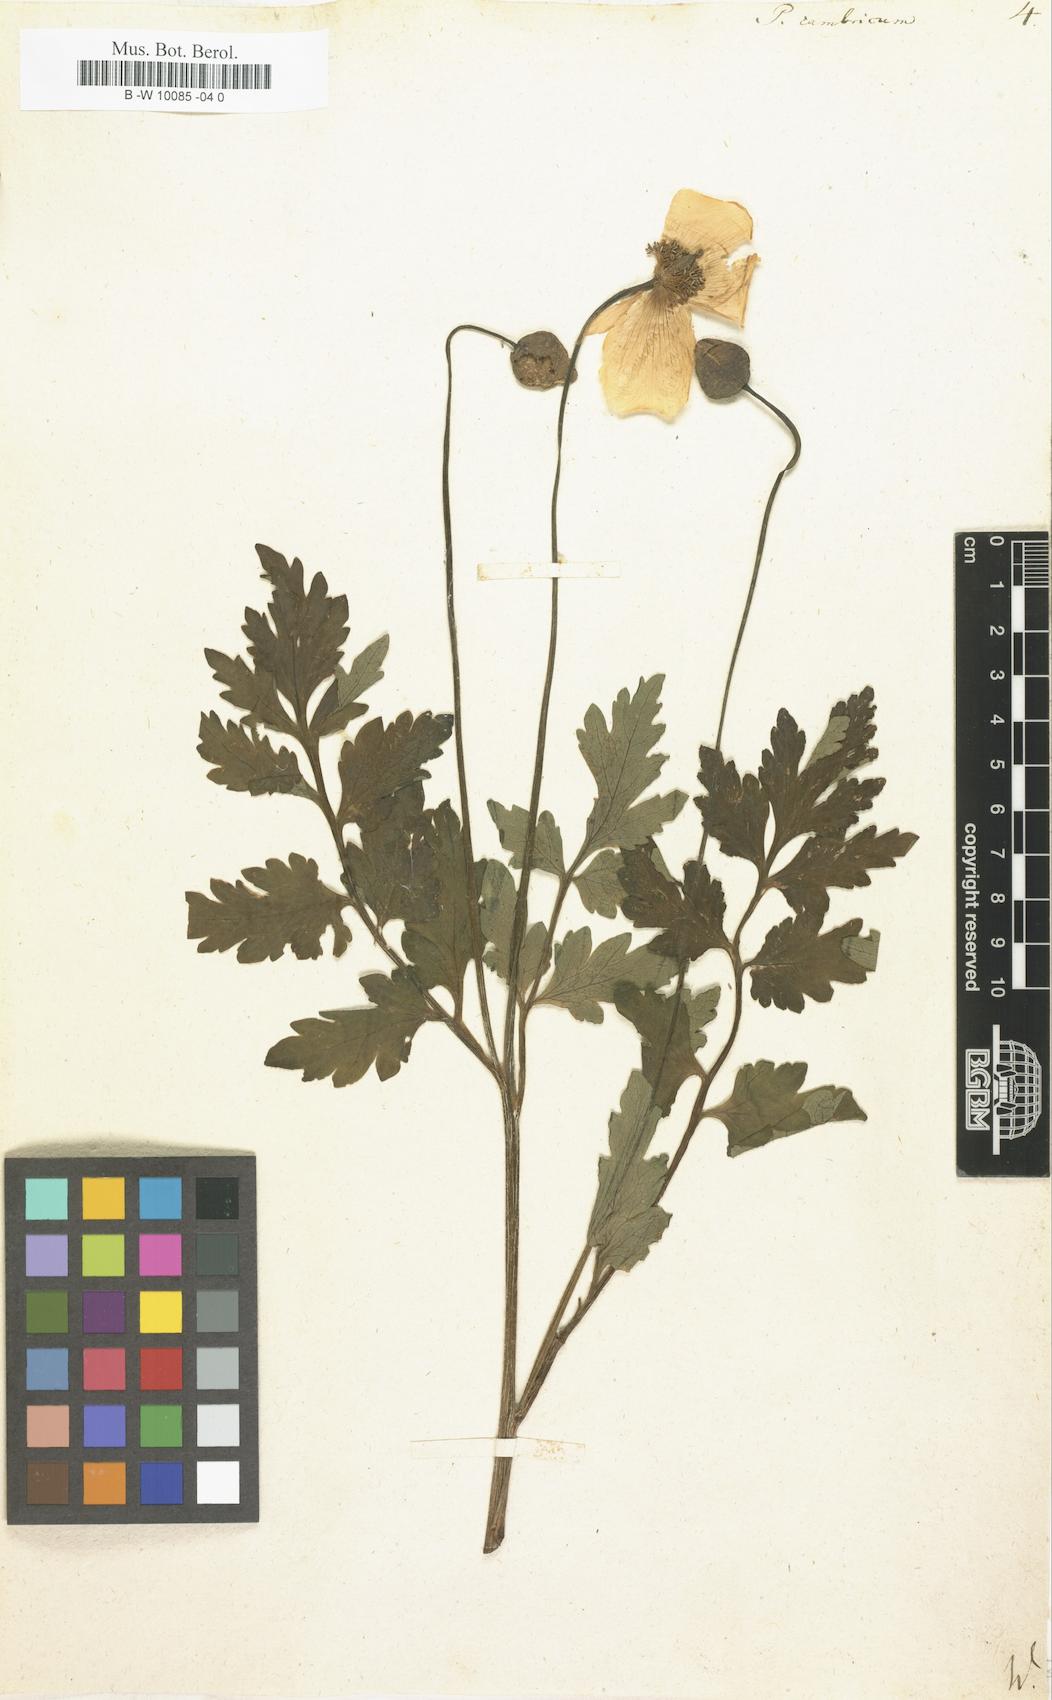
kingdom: Plantae
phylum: Tracheophyta
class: Magnoliopsida
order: Ranunculales
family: Papaveraceae
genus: Papaver
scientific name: Papaver cambricum
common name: Poppy
